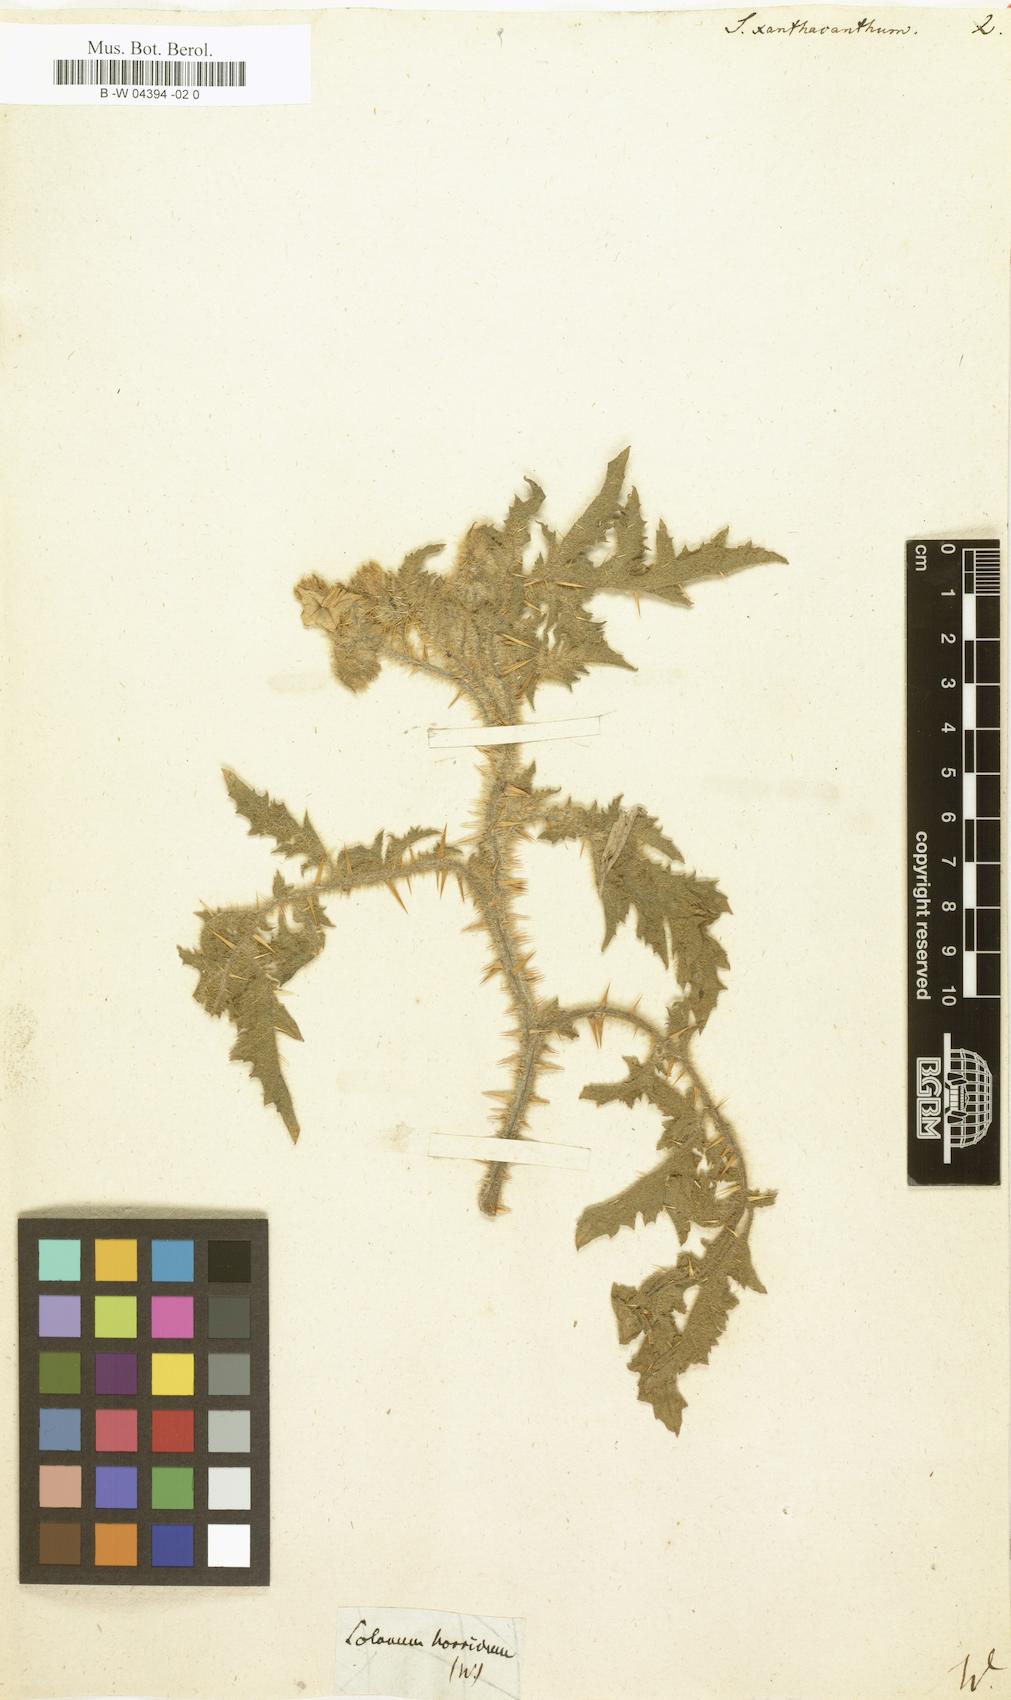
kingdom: Plantae
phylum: Tracheophyta
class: Magnoliopsida
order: Solanales
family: Solanaceae
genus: Solanum
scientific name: Solanum sisymbriifolium
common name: Red buffalo-bur
